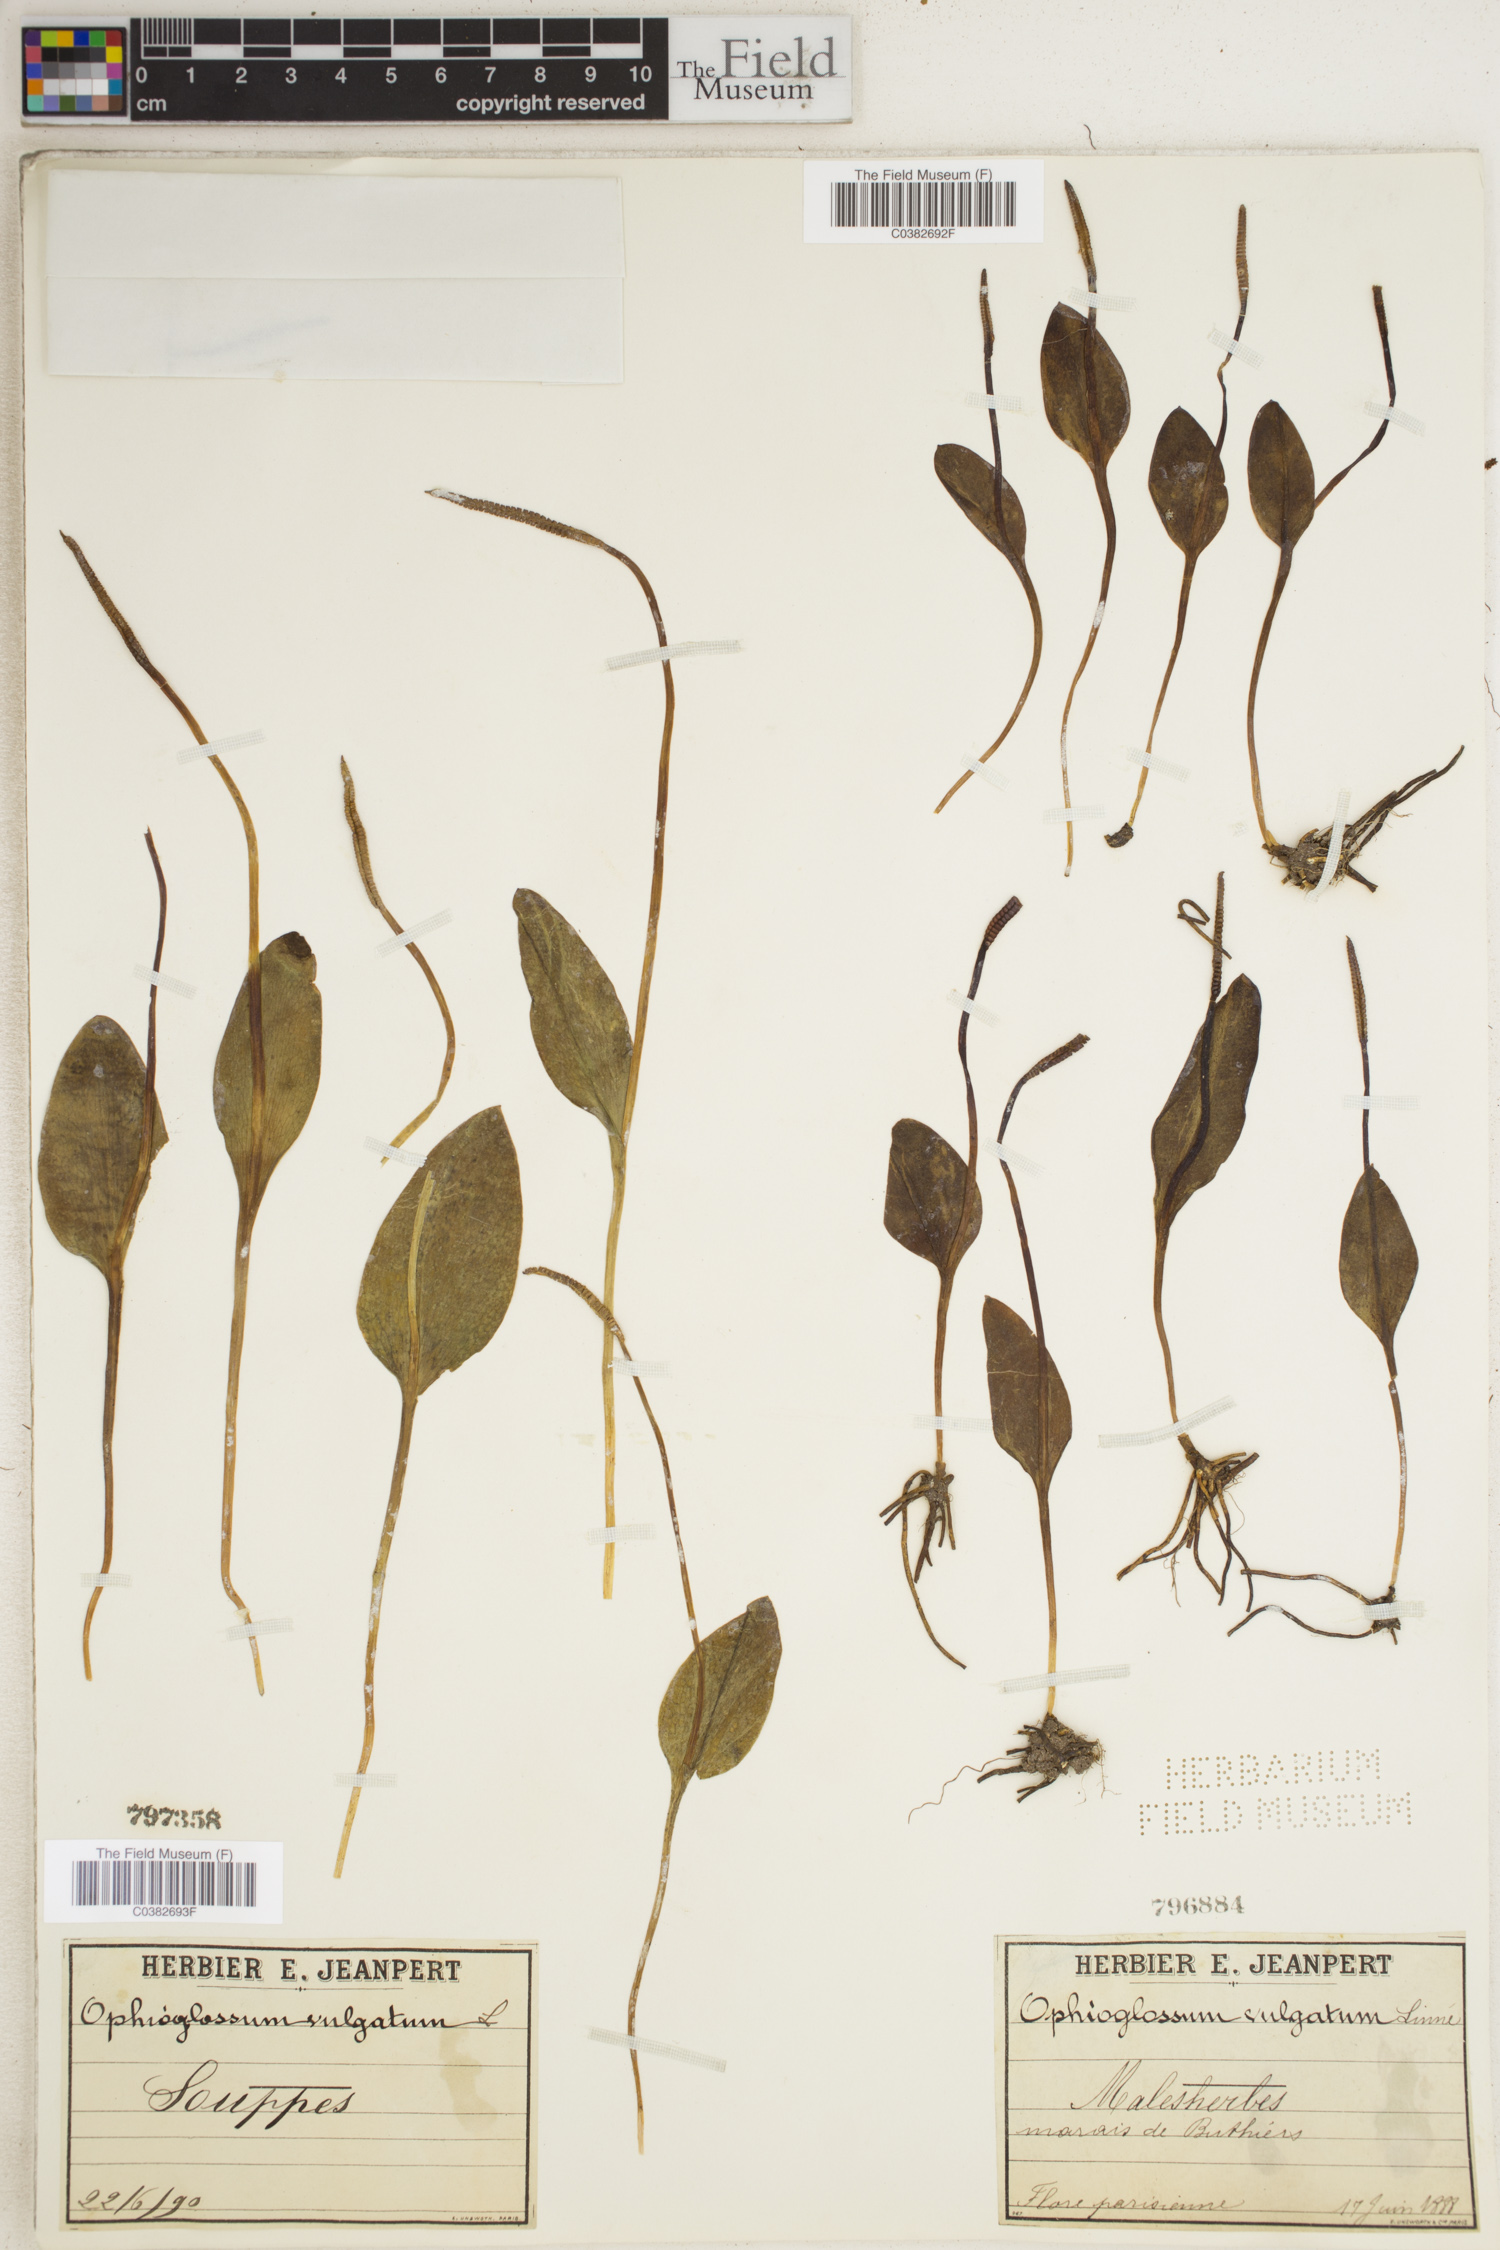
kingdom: Plantae
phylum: Tracheophyta
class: Polypodiopsida
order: Ophioglossales
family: Ophioglossaceae
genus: Ophioglossum
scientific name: Ophioglossum vulgatum
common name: Adder's-tongue
